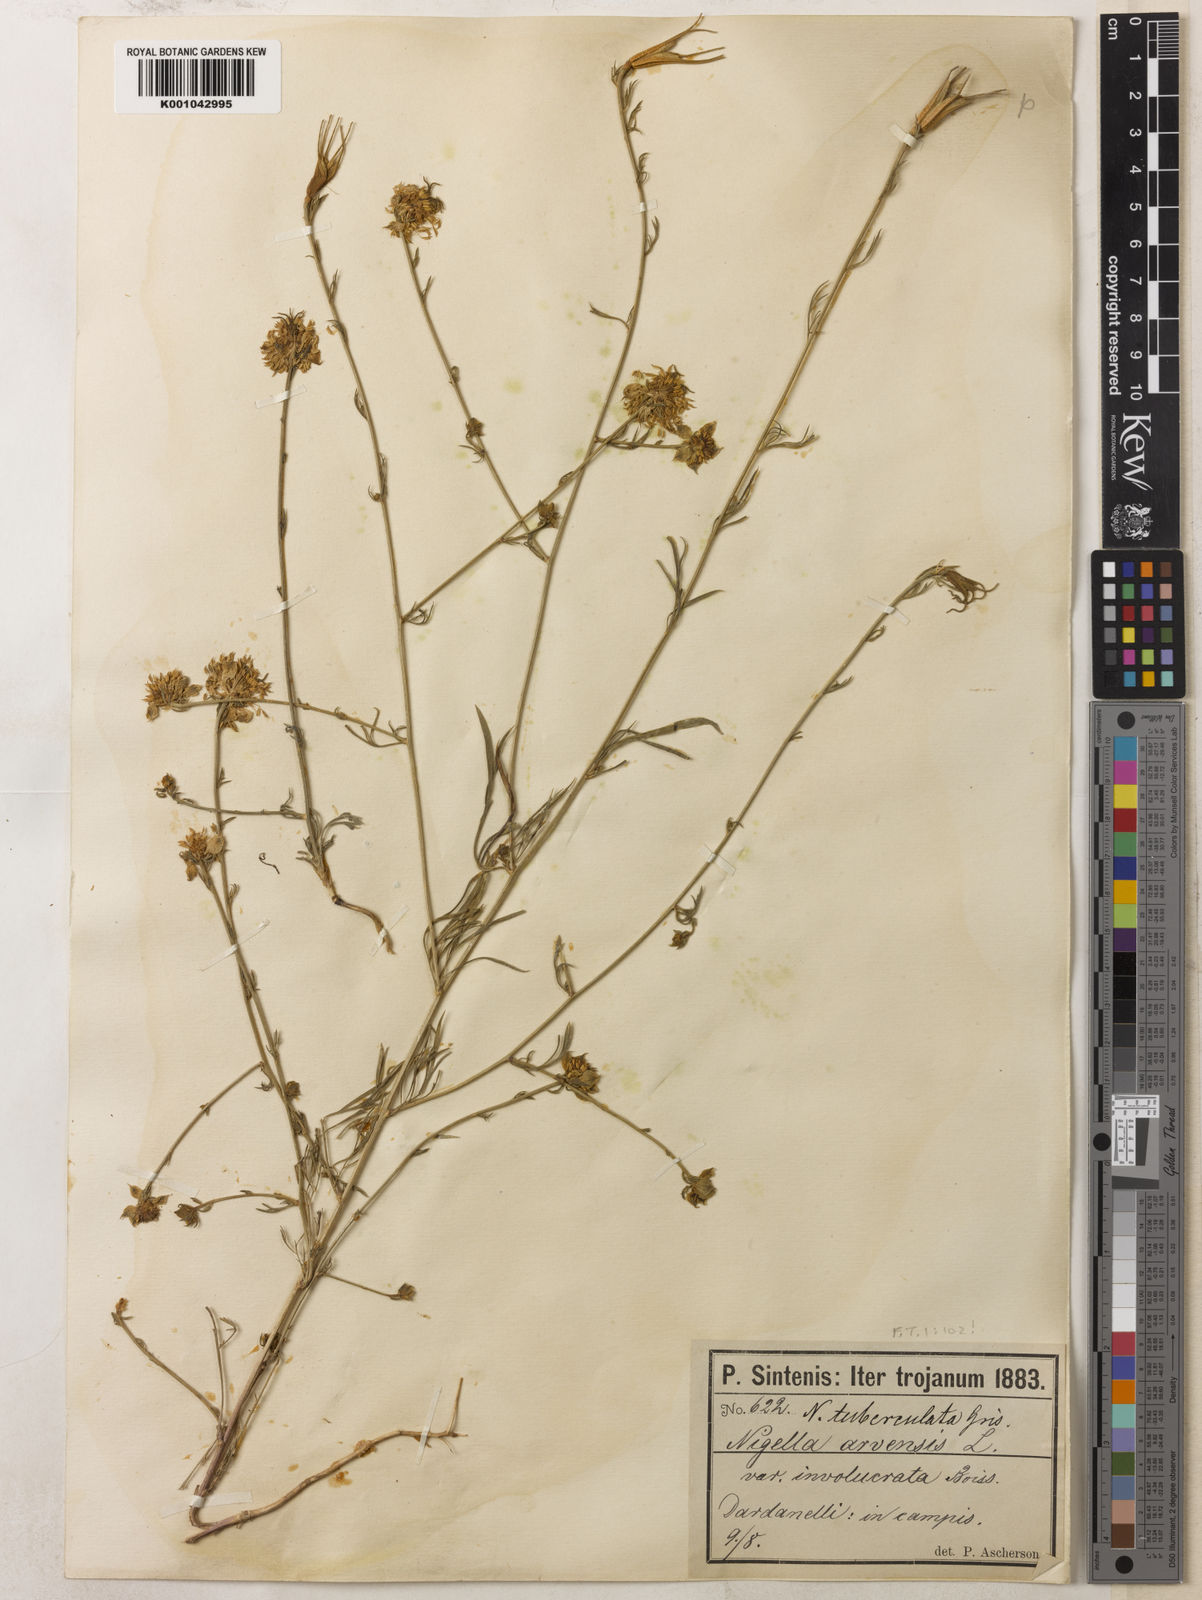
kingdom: Plantae
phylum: Tracheophyta
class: Magnoliopsida
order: Ranunculales
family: Ranunculaceae
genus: Nigella
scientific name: Nigella arvensis
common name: Wild fennel-flower
